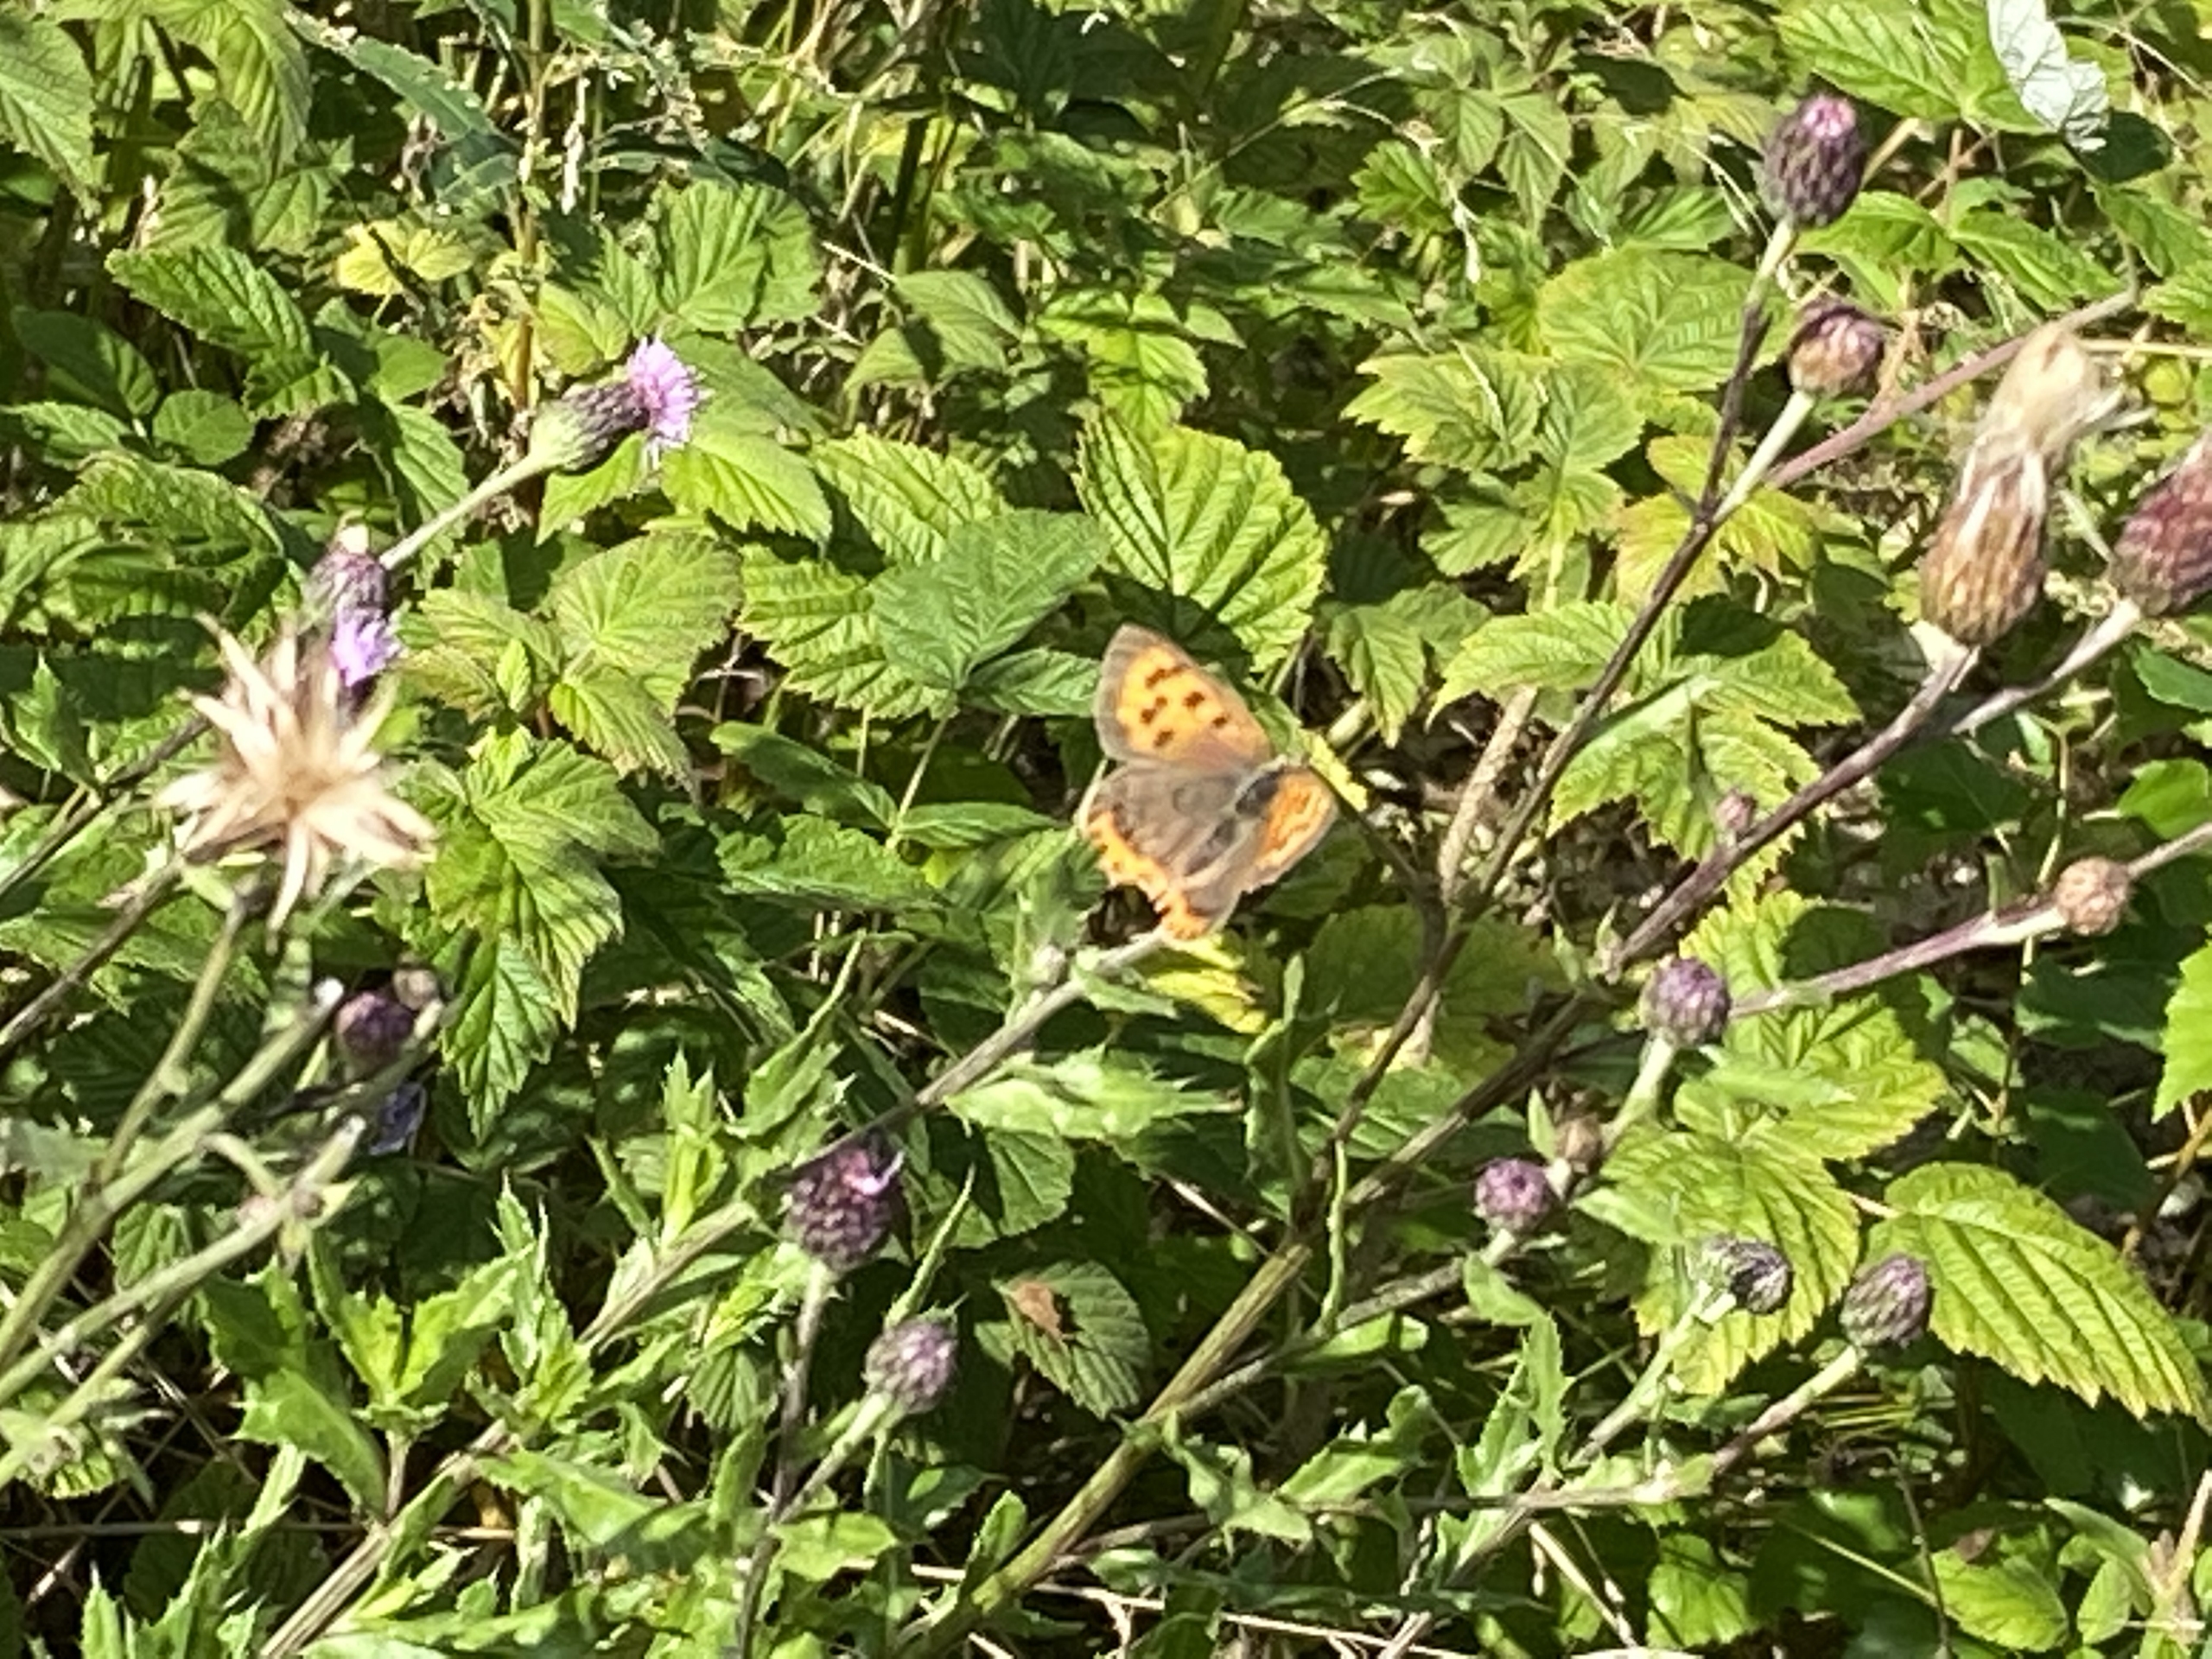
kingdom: Animalia
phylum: Arthropoda
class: Insecta
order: Lepidoptera
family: Lycaenidae
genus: Lycaena
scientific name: Lycaena phlaeas
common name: Lille ildfugl
